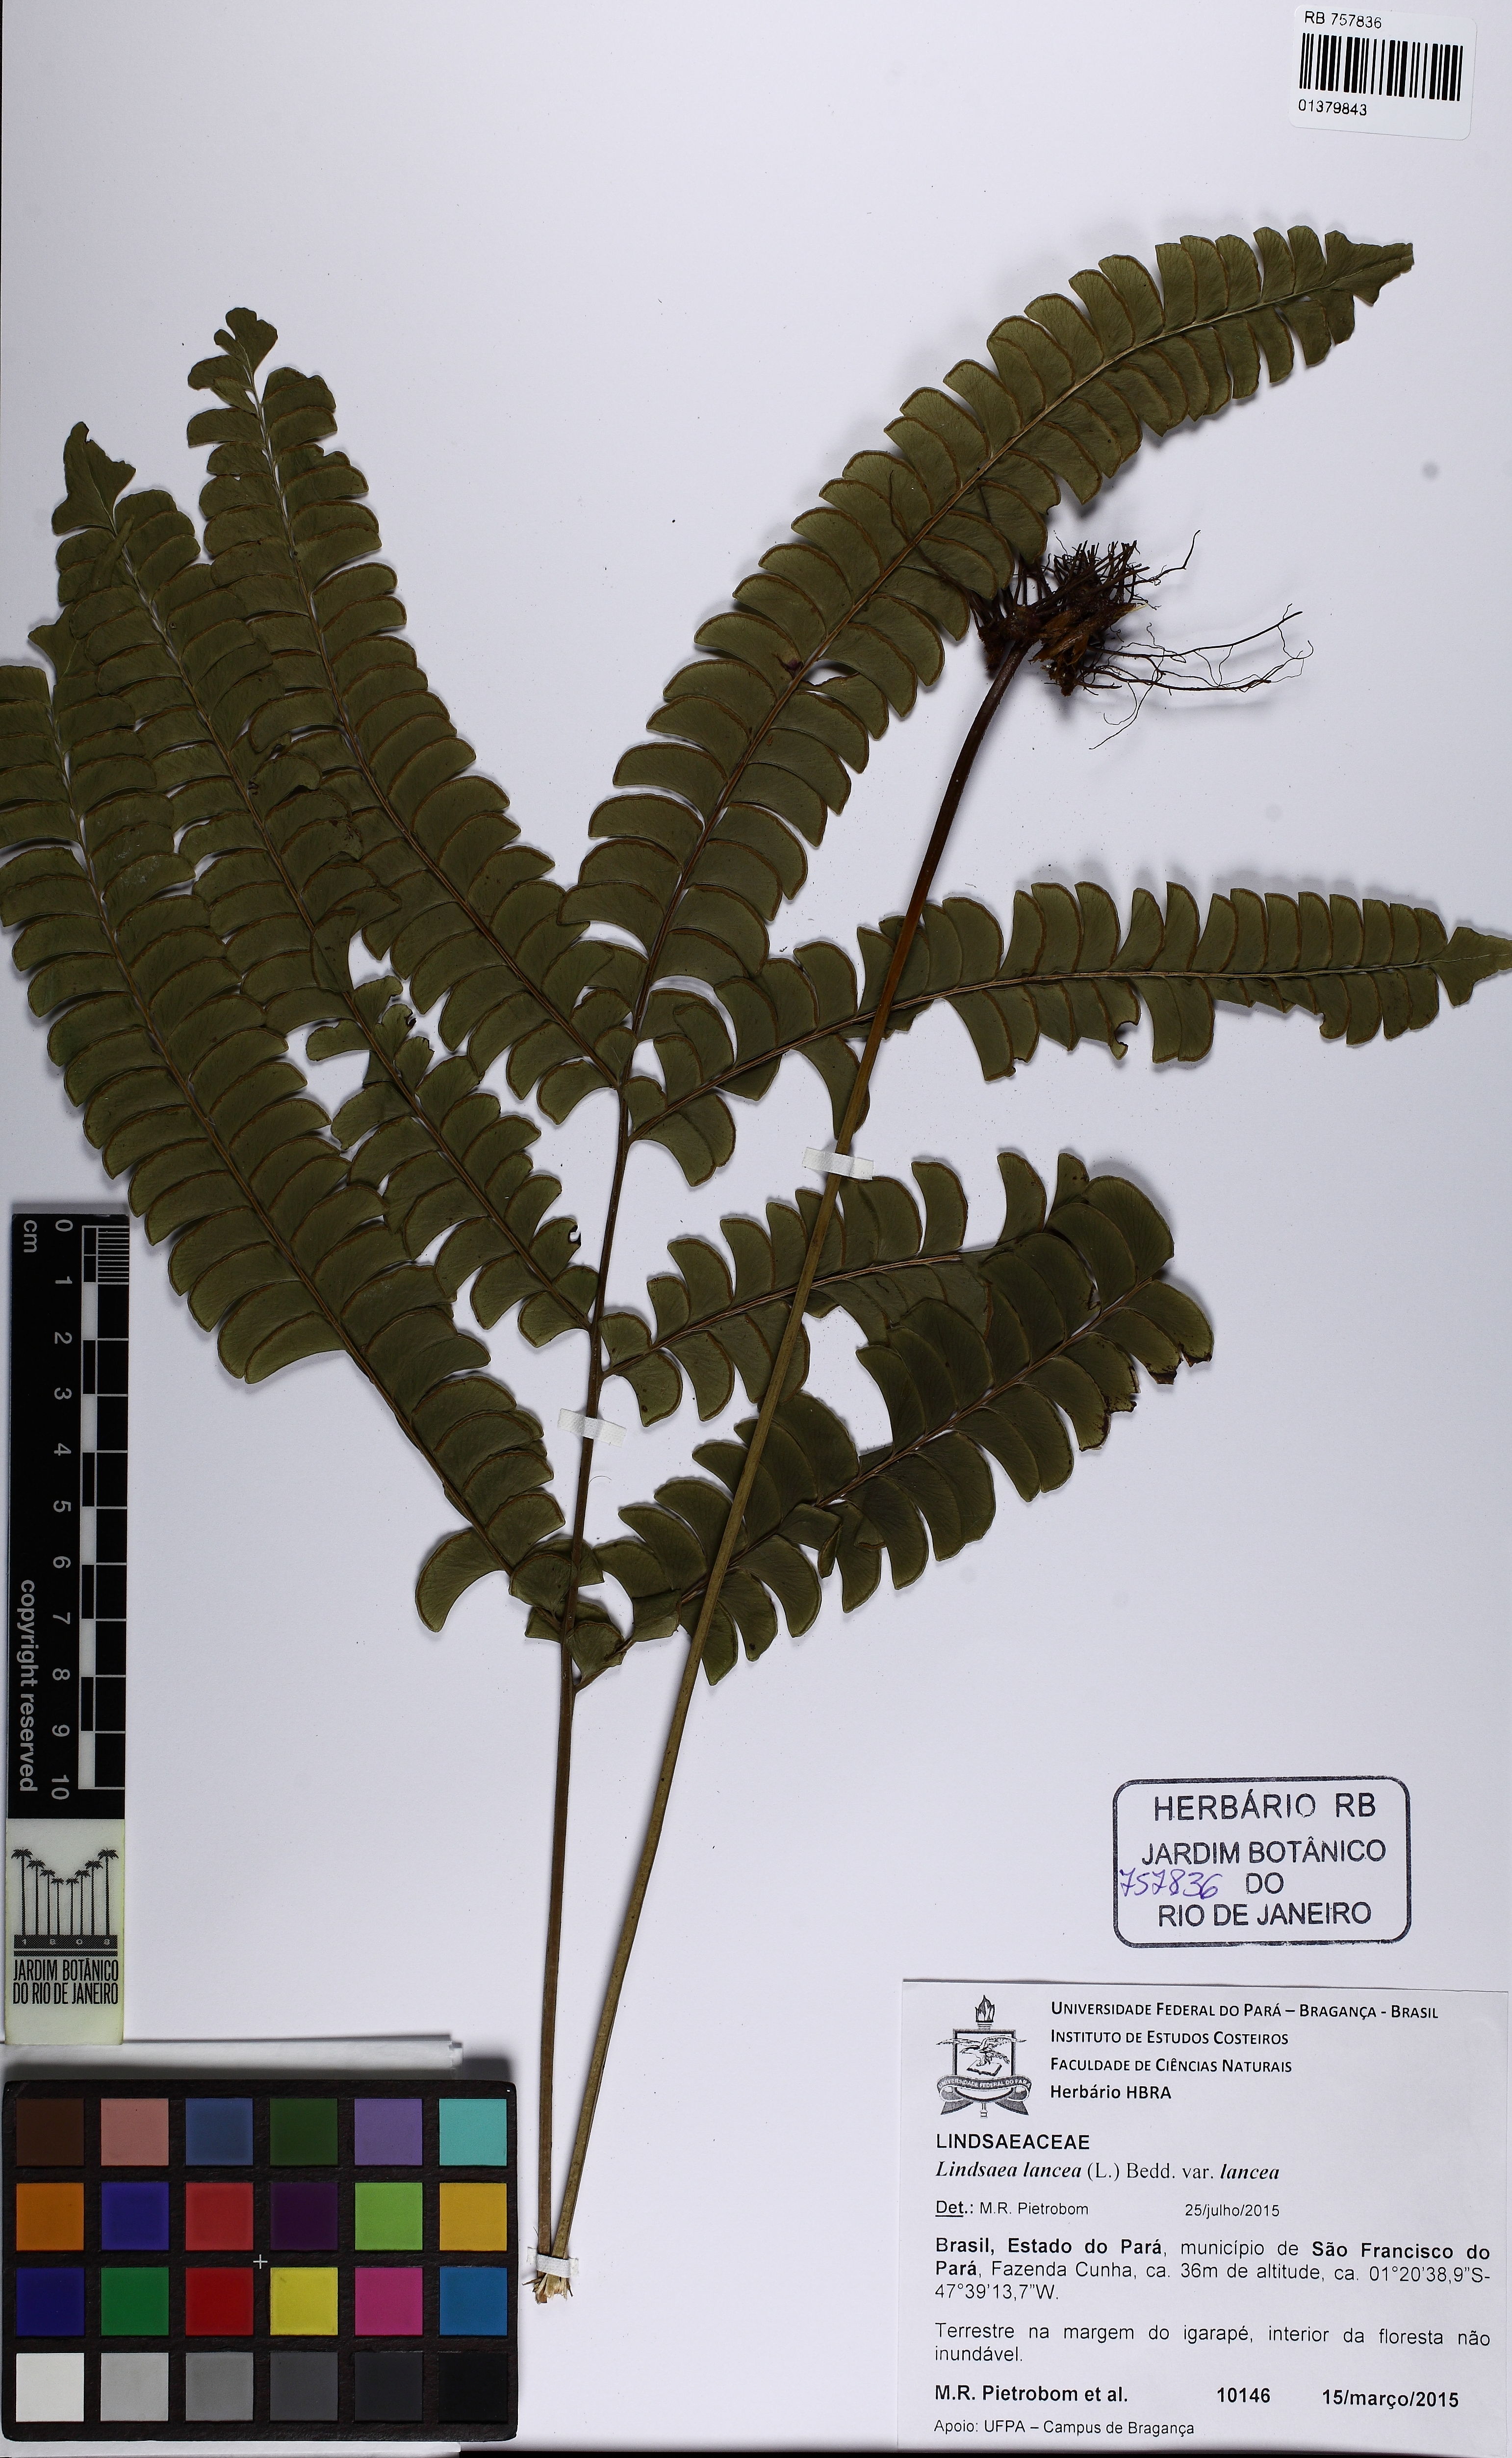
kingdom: Plantae
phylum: Tracheophyta
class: Polypodiopsida
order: Polypodiales
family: Lindsaeaceae
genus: Lindsaea
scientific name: Lindsaea lancea
